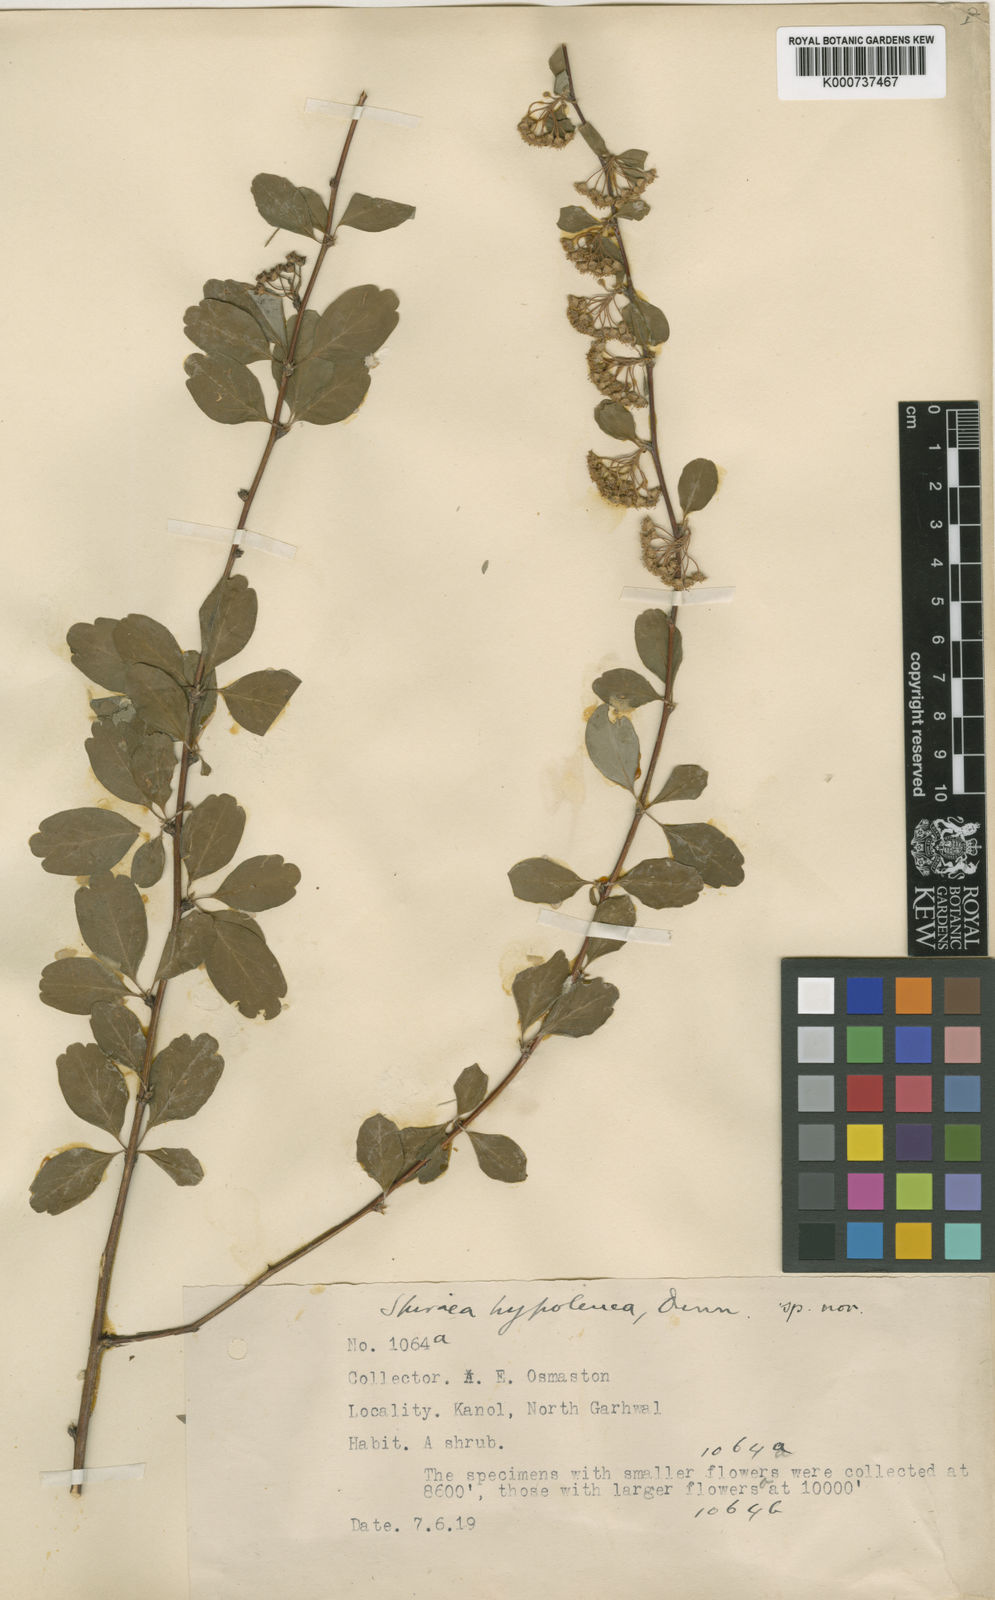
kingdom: Plantae
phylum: Tracheophyta
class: Magnoliopsida
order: Rosales
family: Rosaceae
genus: Spiraea
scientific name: Spiraea hypoleuca
